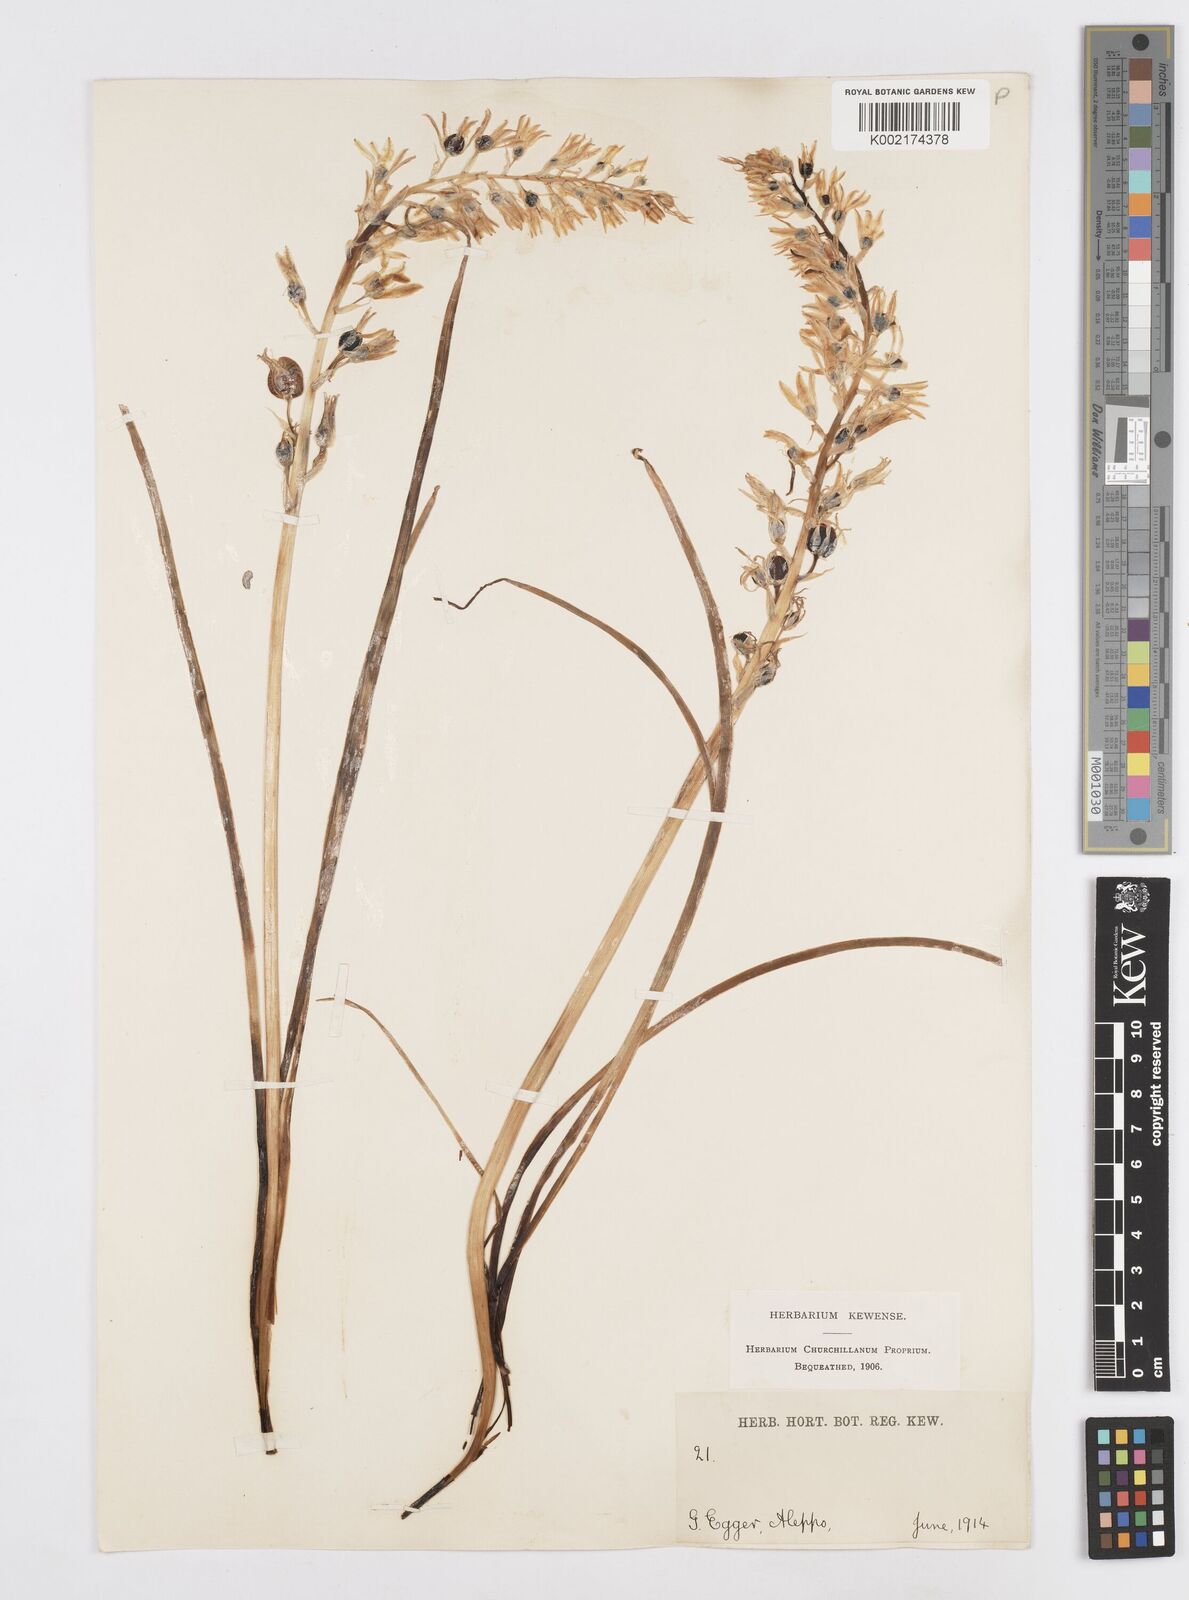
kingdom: Plantae
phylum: Tracheophyta
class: Liliopsida
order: Asparagales
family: Asparagaceae
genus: Ornithogalum
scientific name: Ornithogalum narbonense
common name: Bath-asparagus
